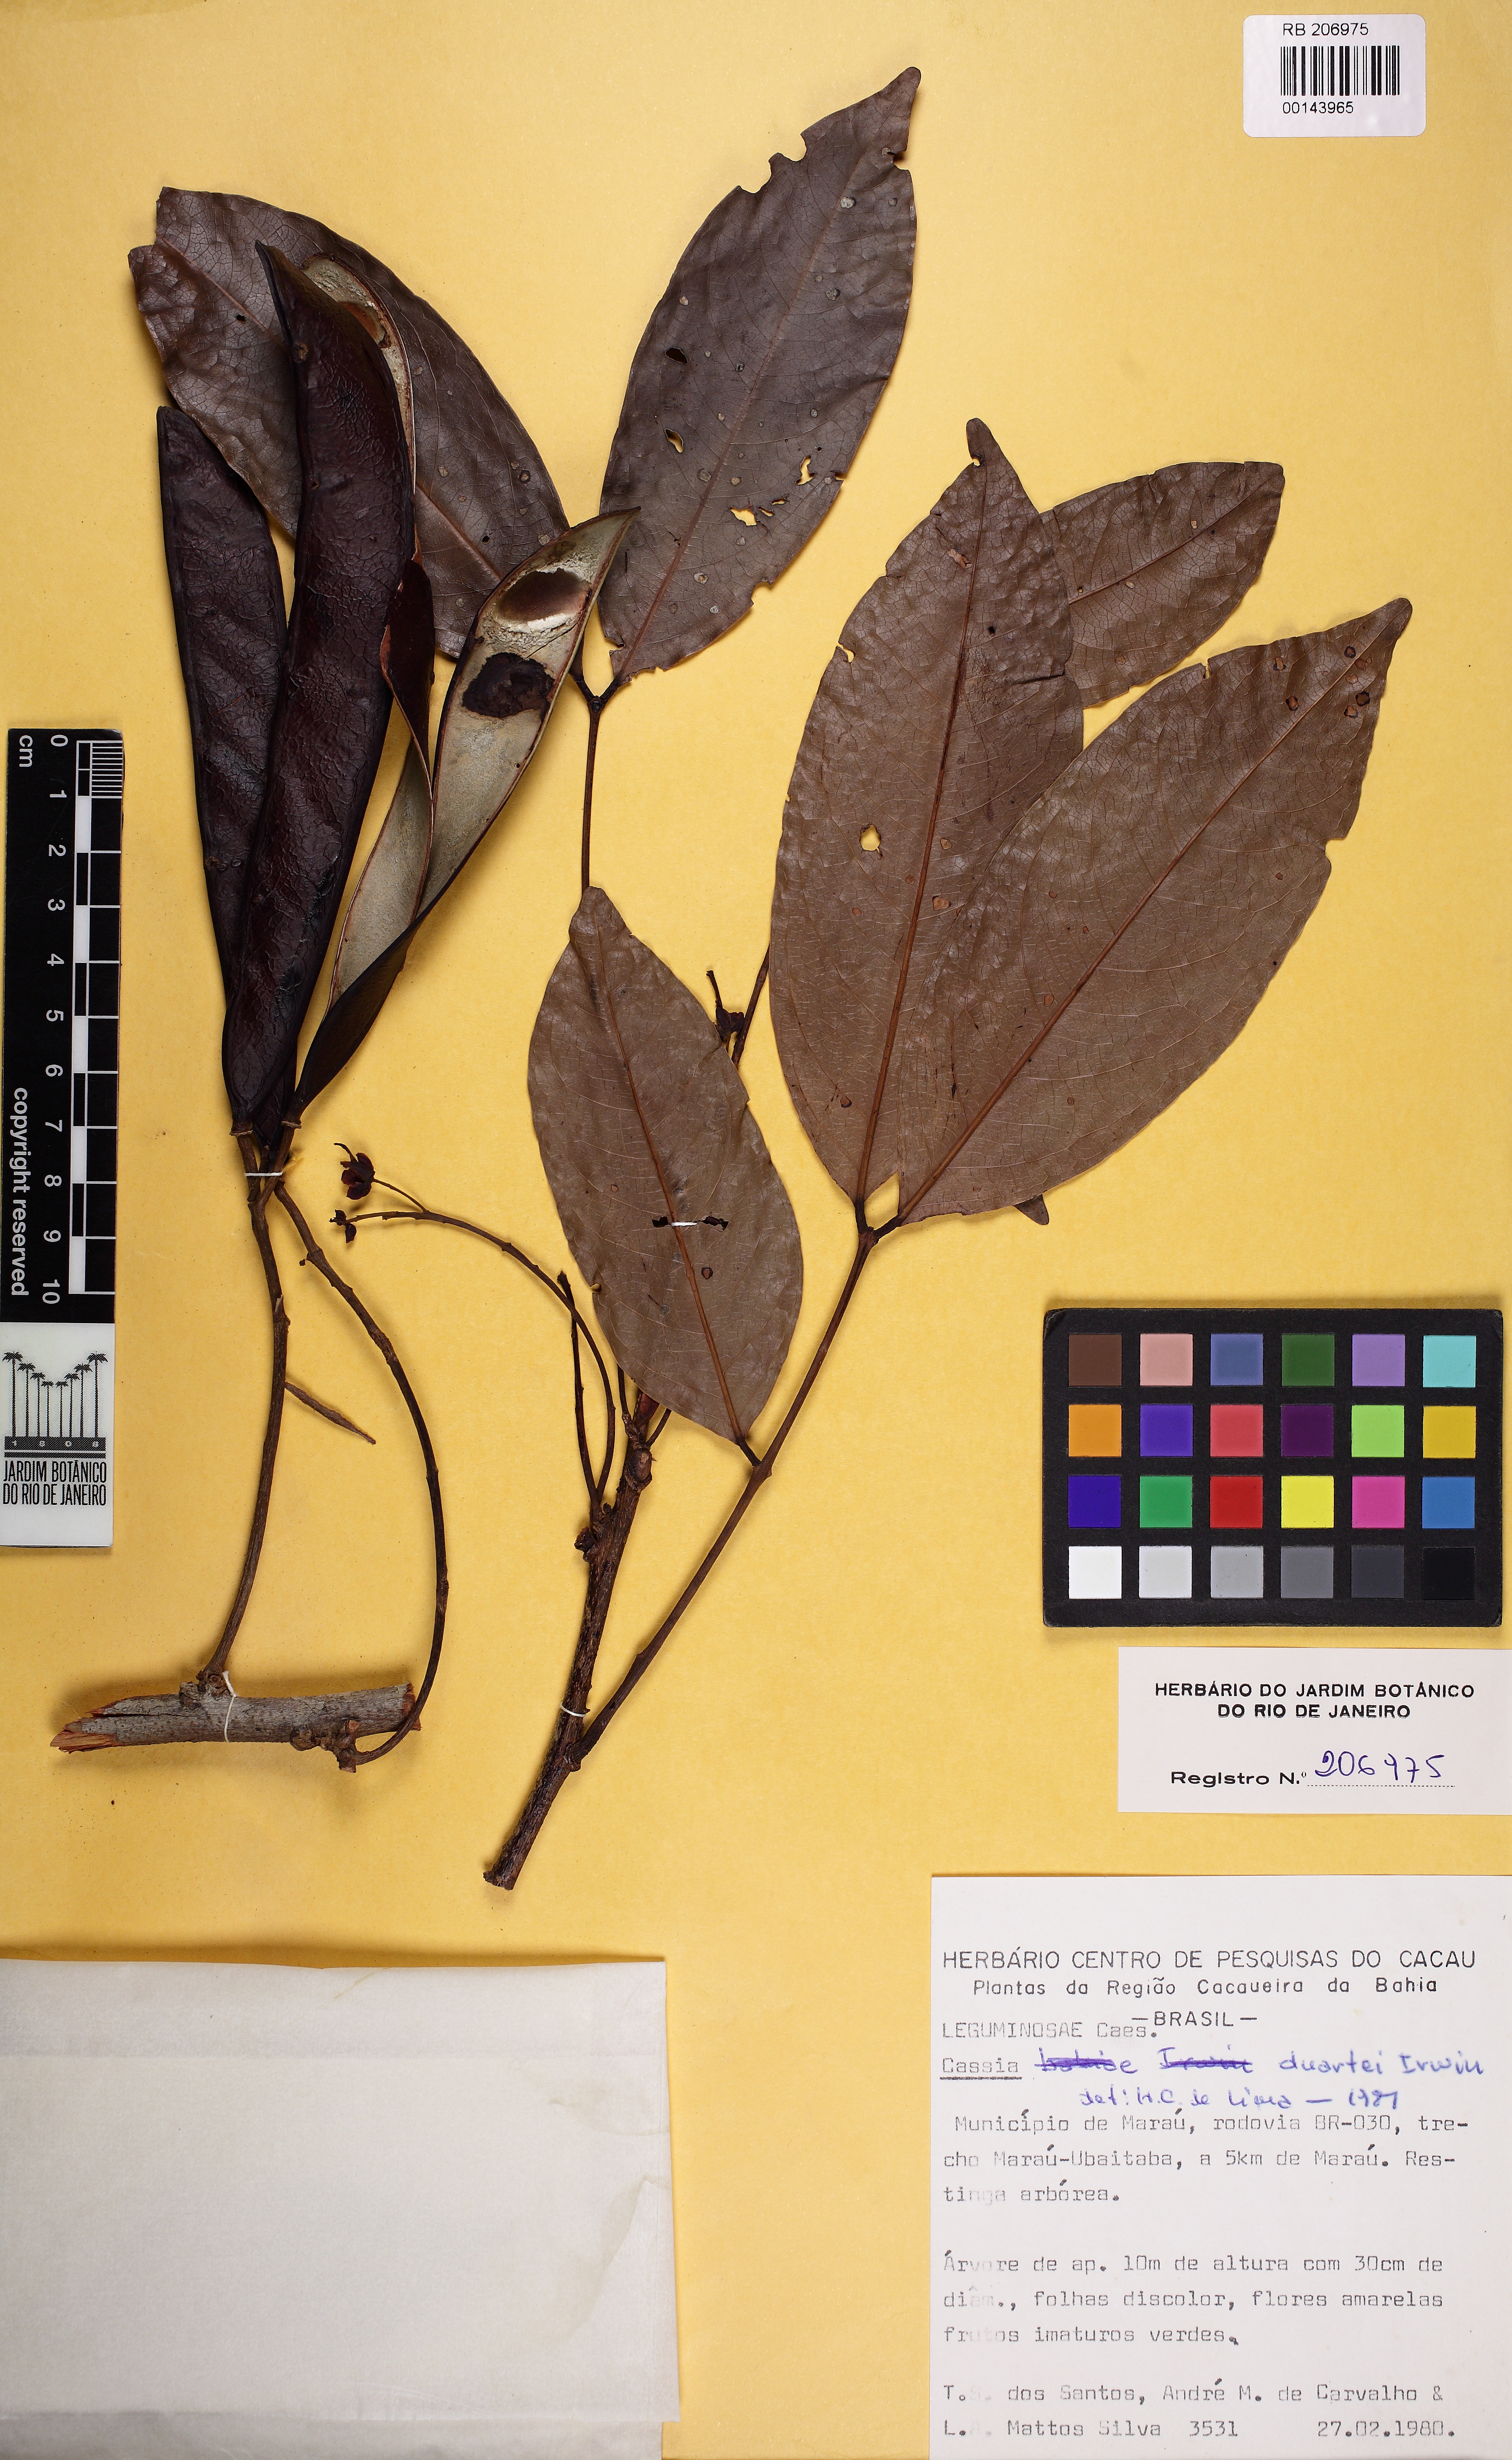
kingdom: Plantae
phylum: Tracheophyta
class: Magnoliopsida
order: Fabales
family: Fabaceae
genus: Chamaecrista
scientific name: Chamaecrista duartei
